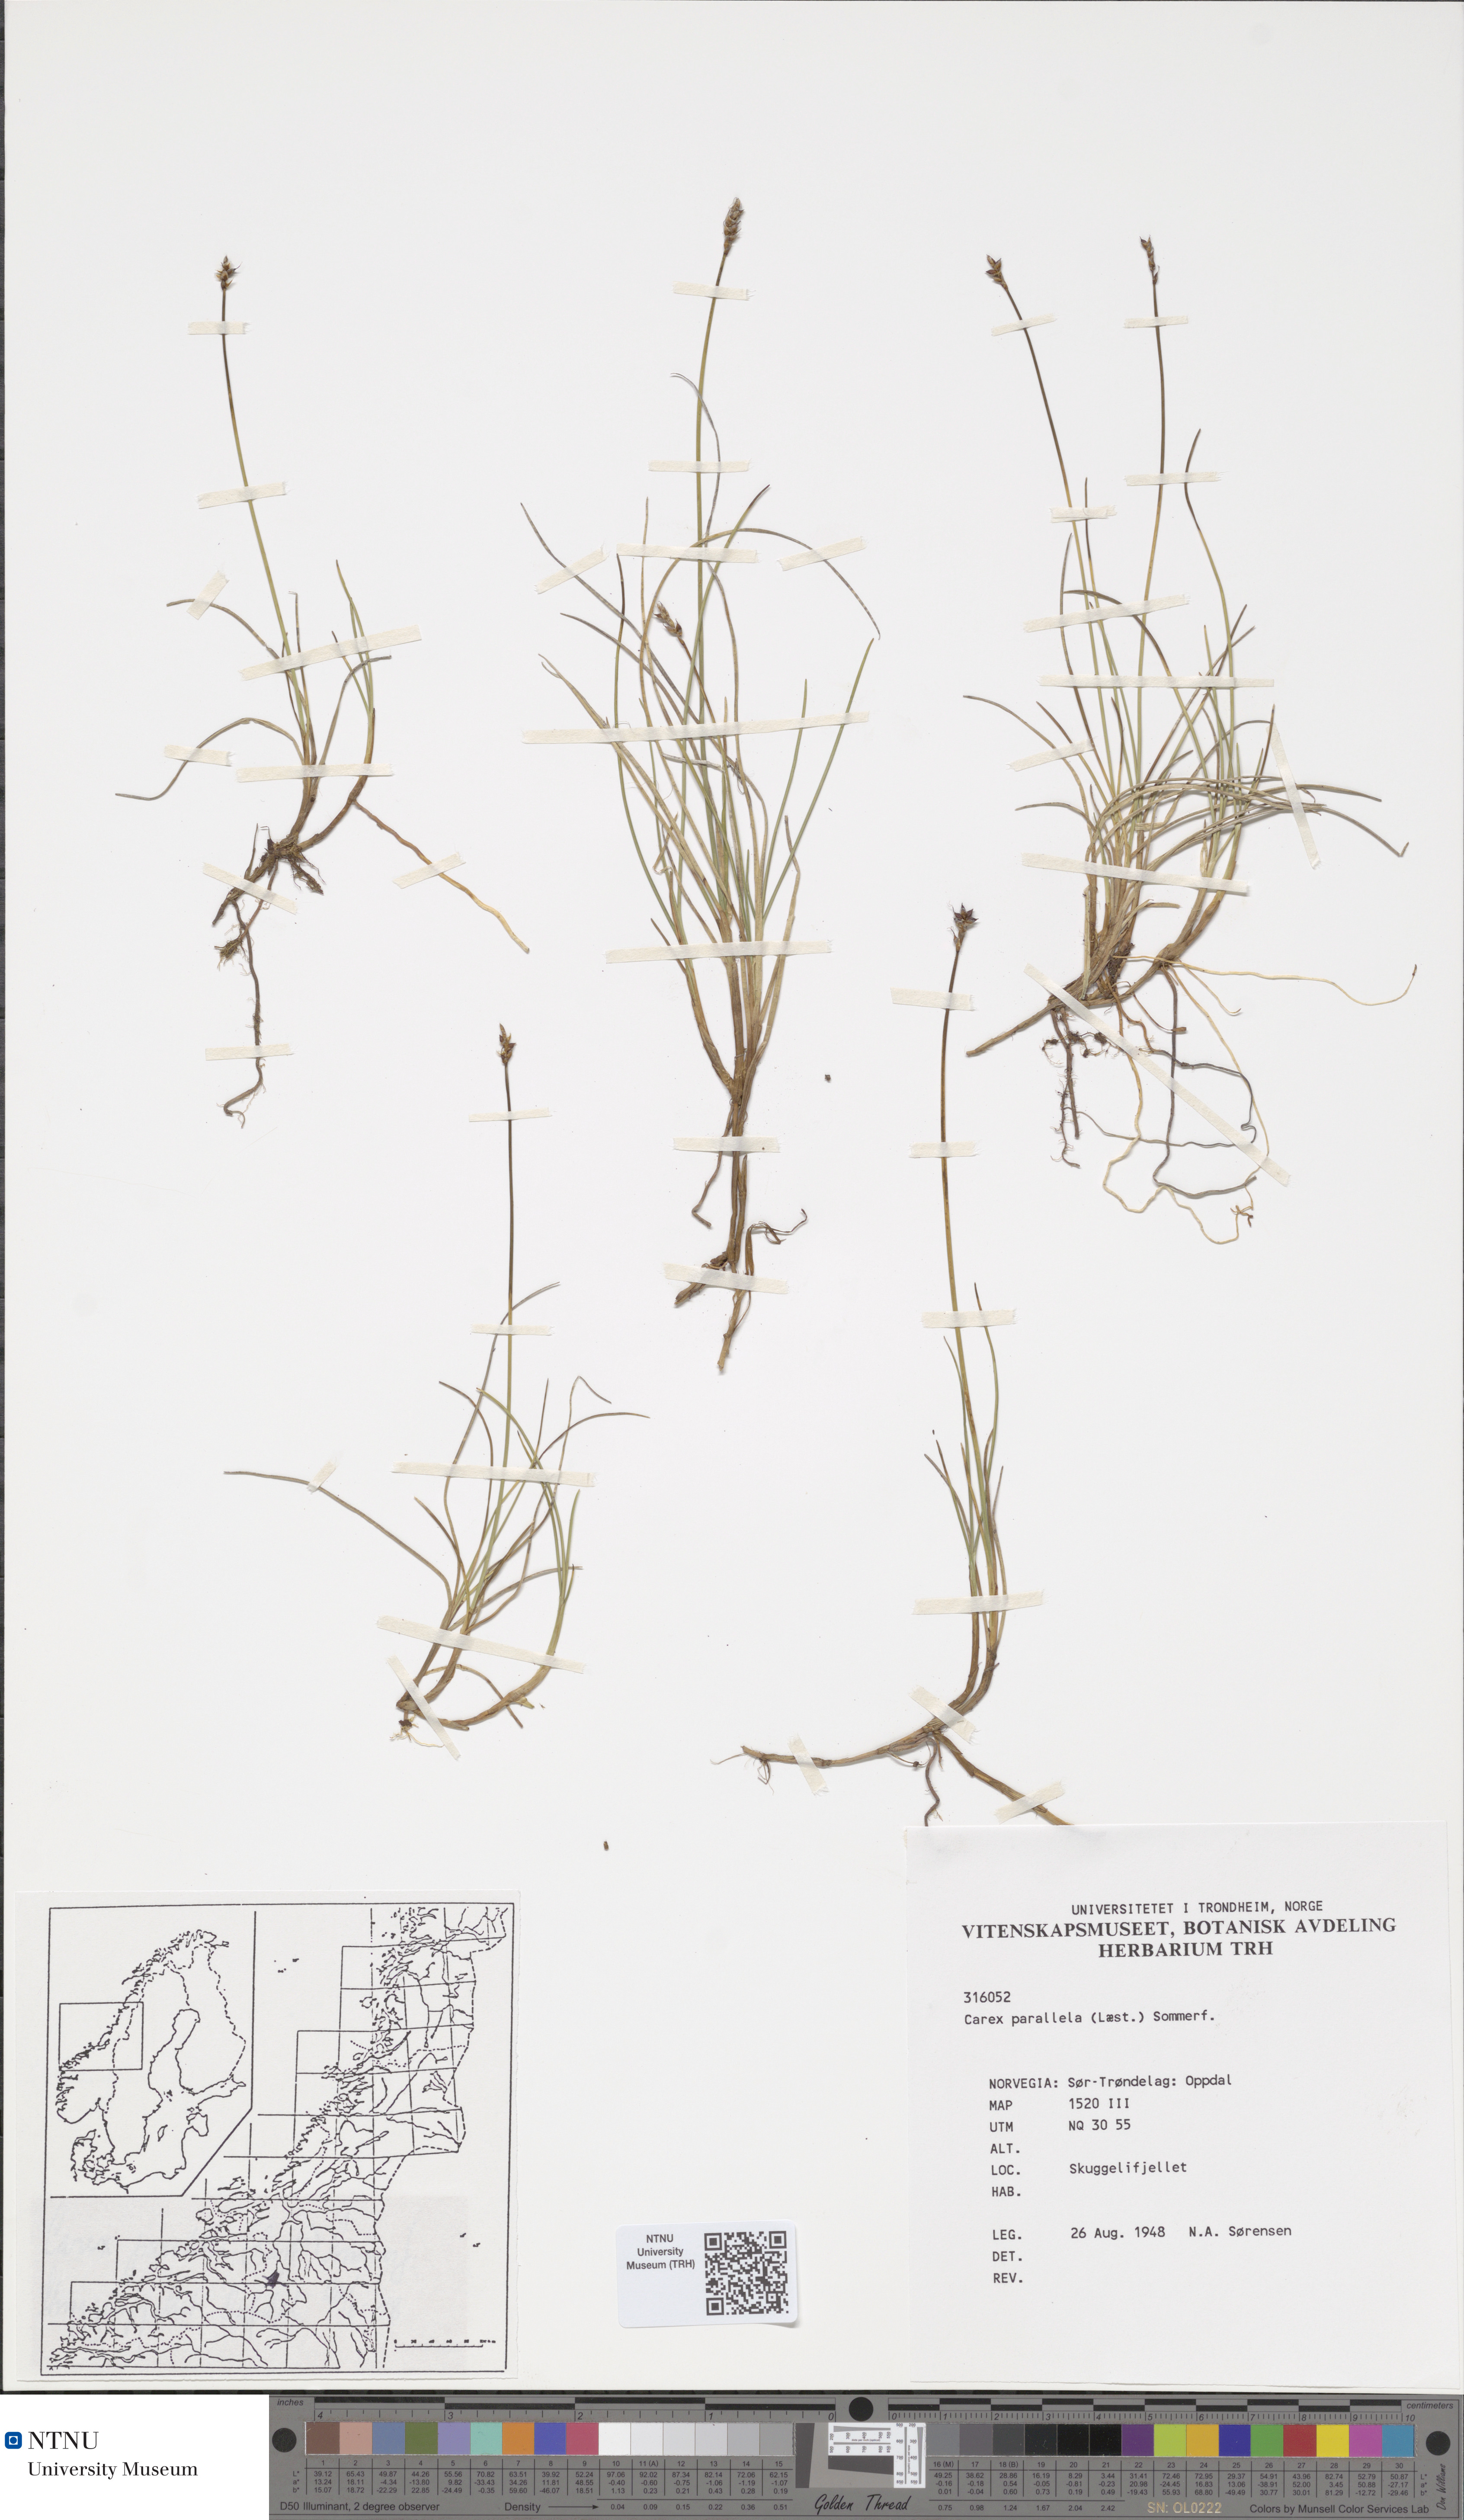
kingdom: Plantae
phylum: Tracheophyta
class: Liliopsida
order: Poales
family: Cyperaceae
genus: Carex
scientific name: Carex parallela
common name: Parallel sedge
